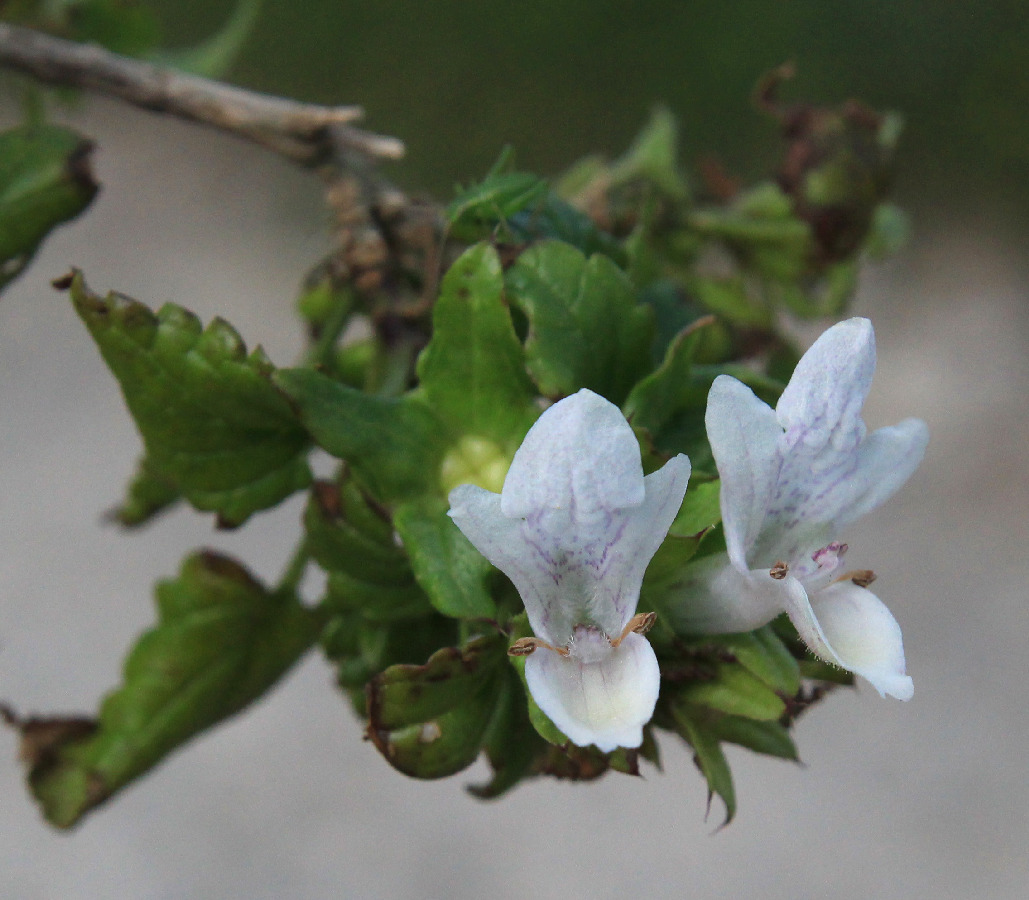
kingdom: Plantae
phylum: Tracheophyta
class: Magnoliopsida
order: Lamiales
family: Lamiaceae
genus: Prasium
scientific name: Prasium majus
